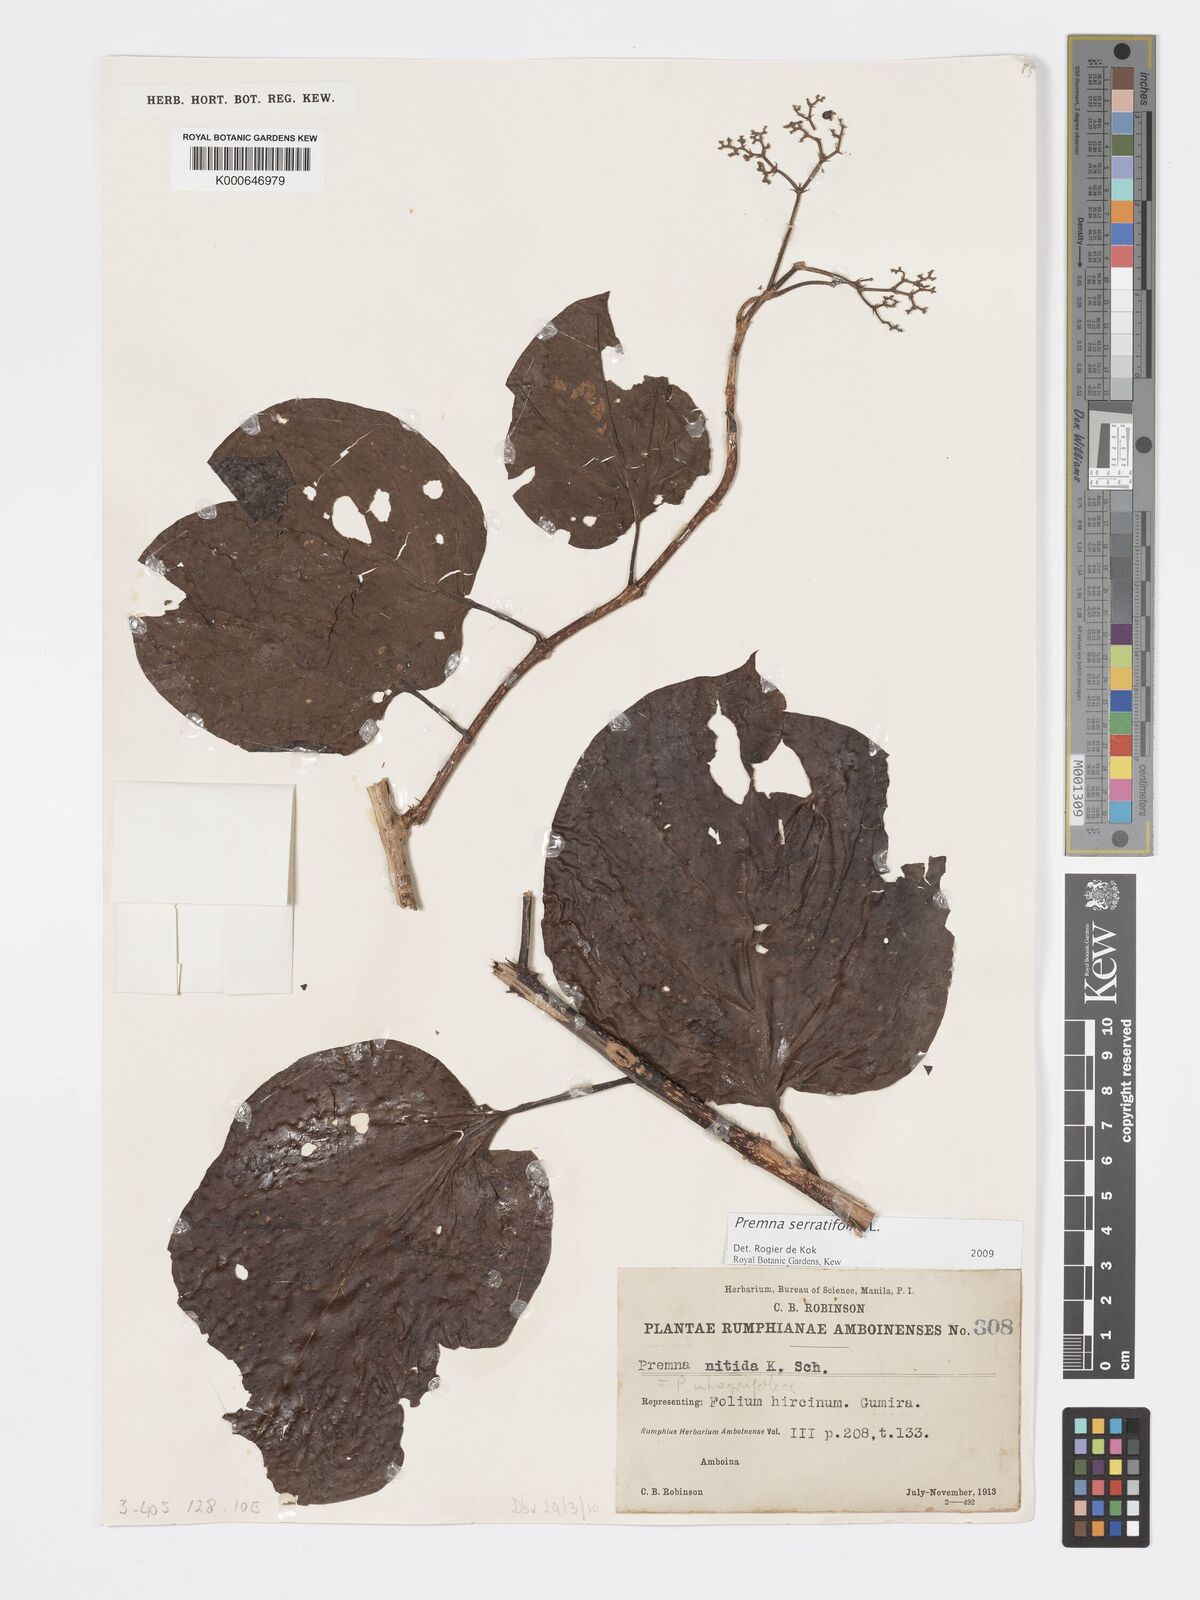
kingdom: Plantae
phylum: Tracheophyta
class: Magnoliopsida
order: Lamiales
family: Lamiaceae
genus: Premna
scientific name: Premna serratifolia
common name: Bastard guelder
